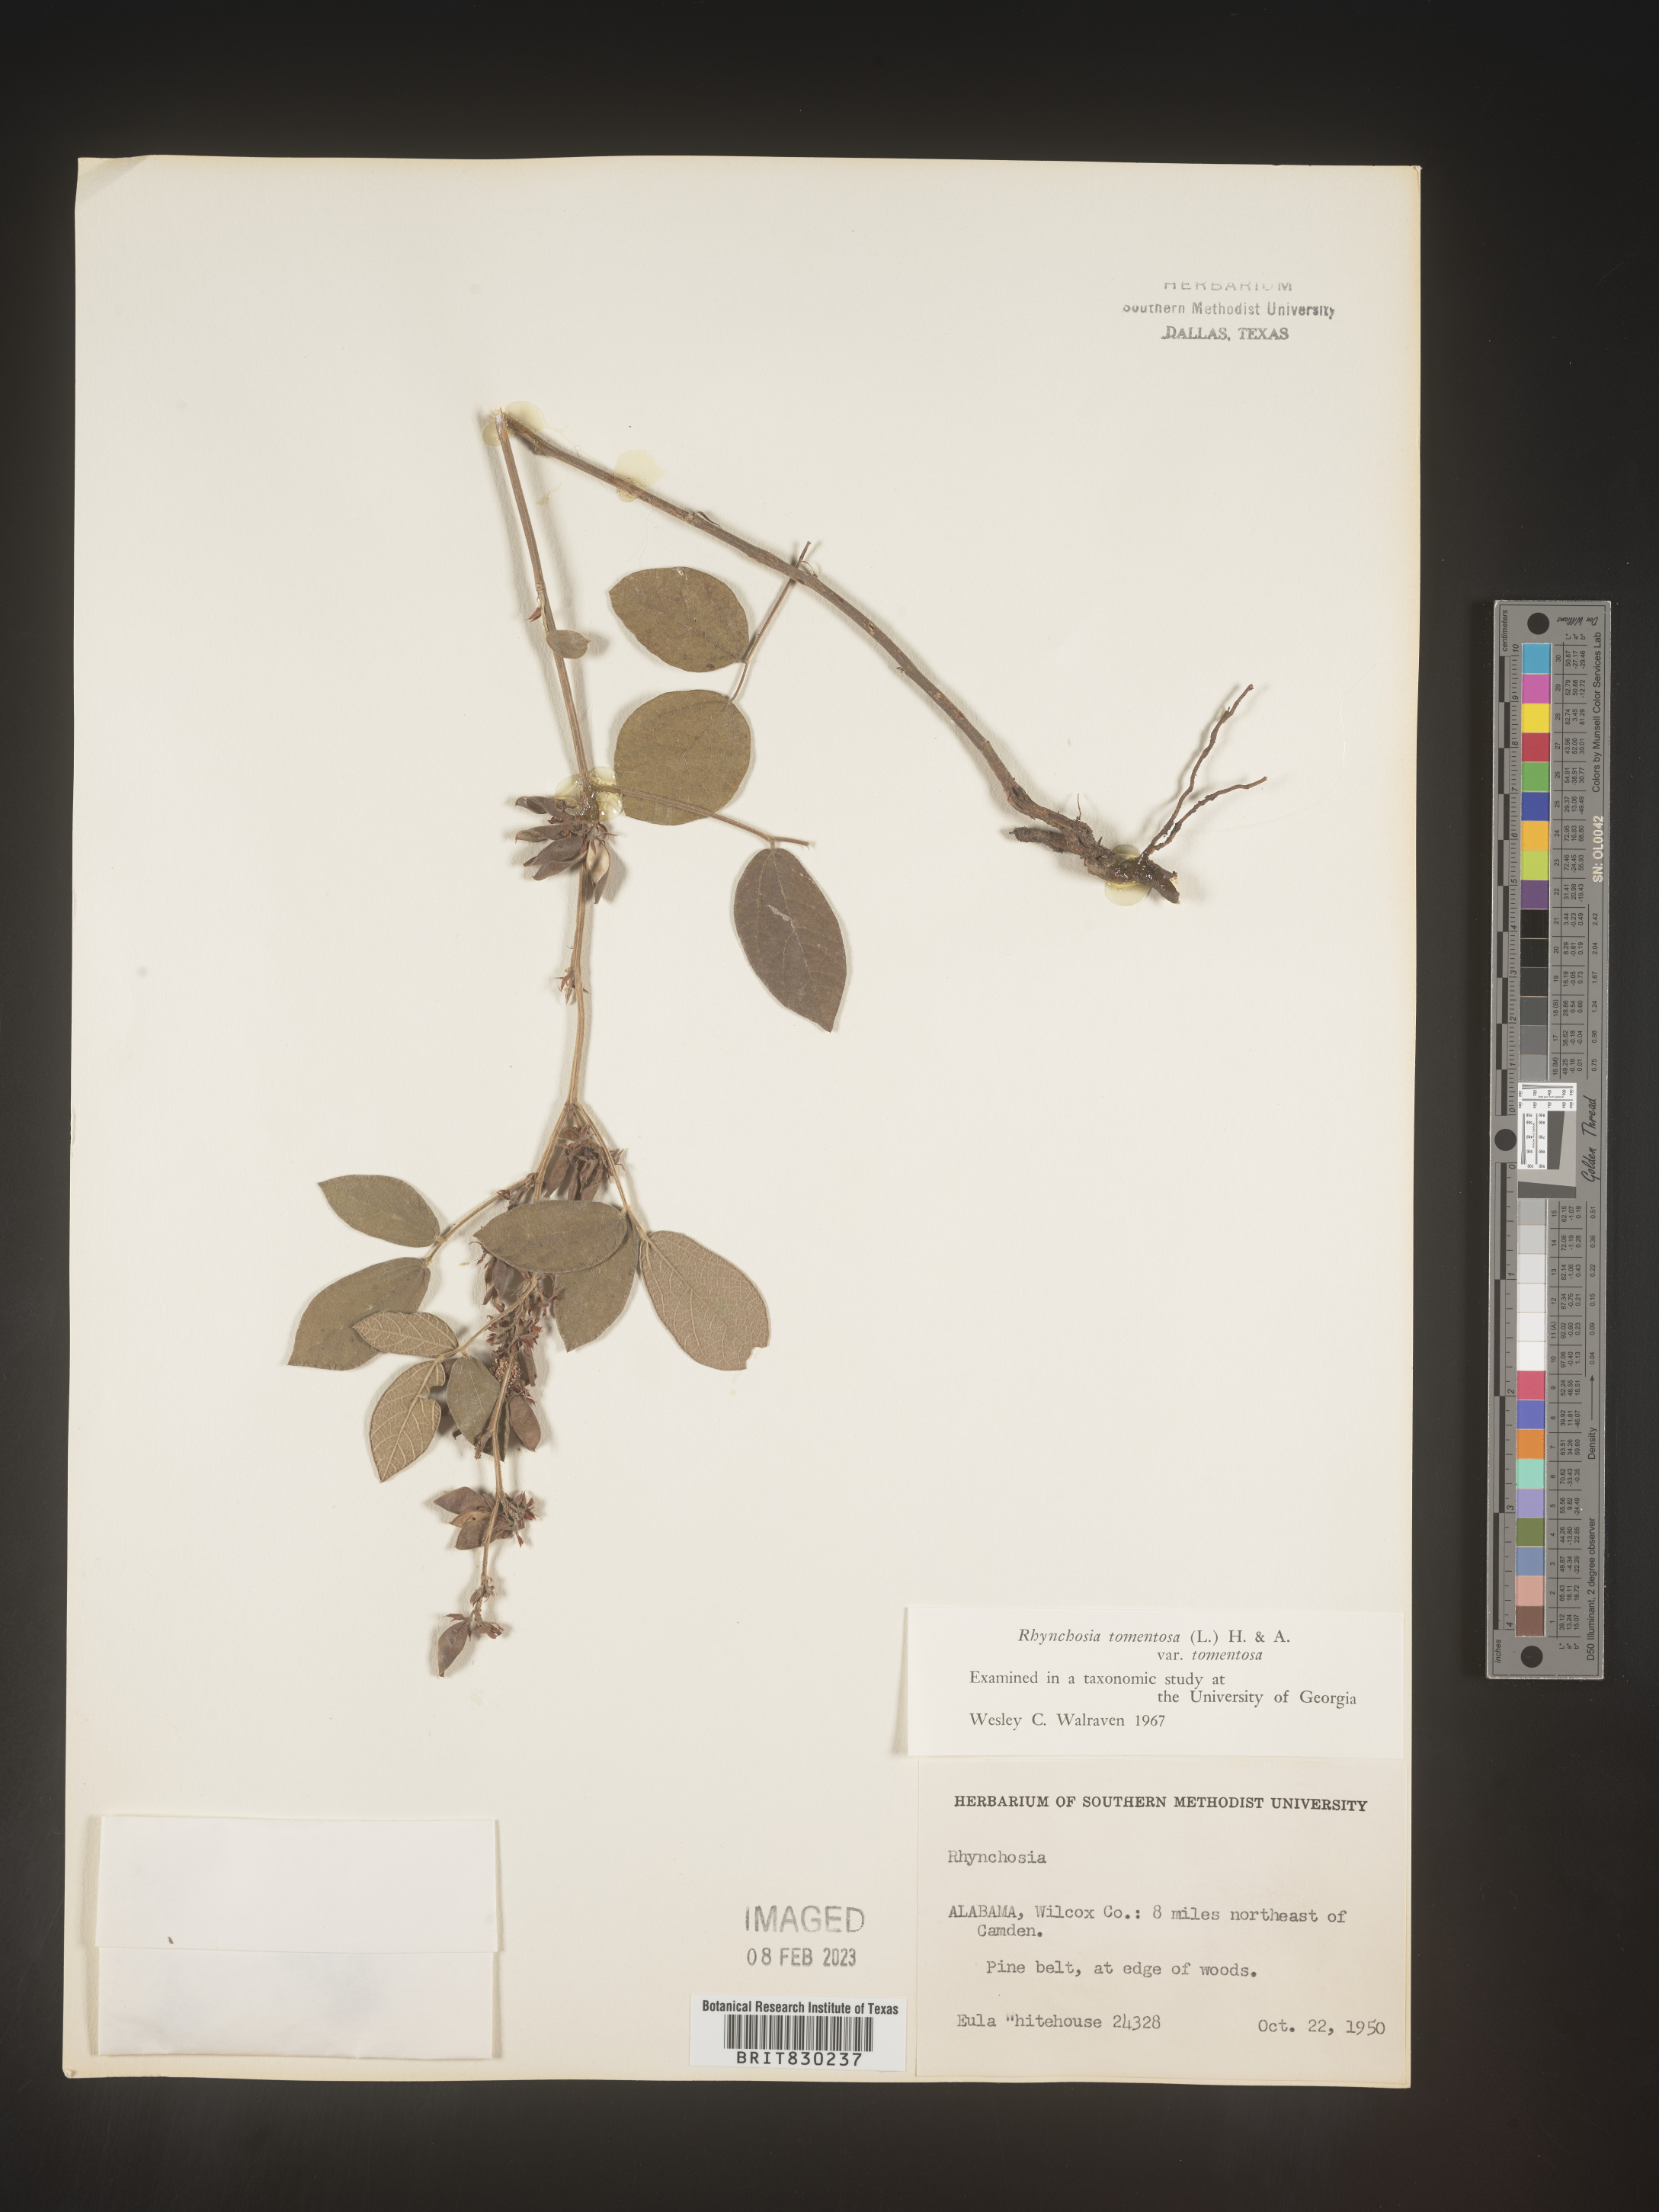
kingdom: Plantae
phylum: Tracheophyta
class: Magnoliopsida
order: Fabales
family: Fabaceae
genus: Rhynchosia
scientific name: Rhynchosia rothii
